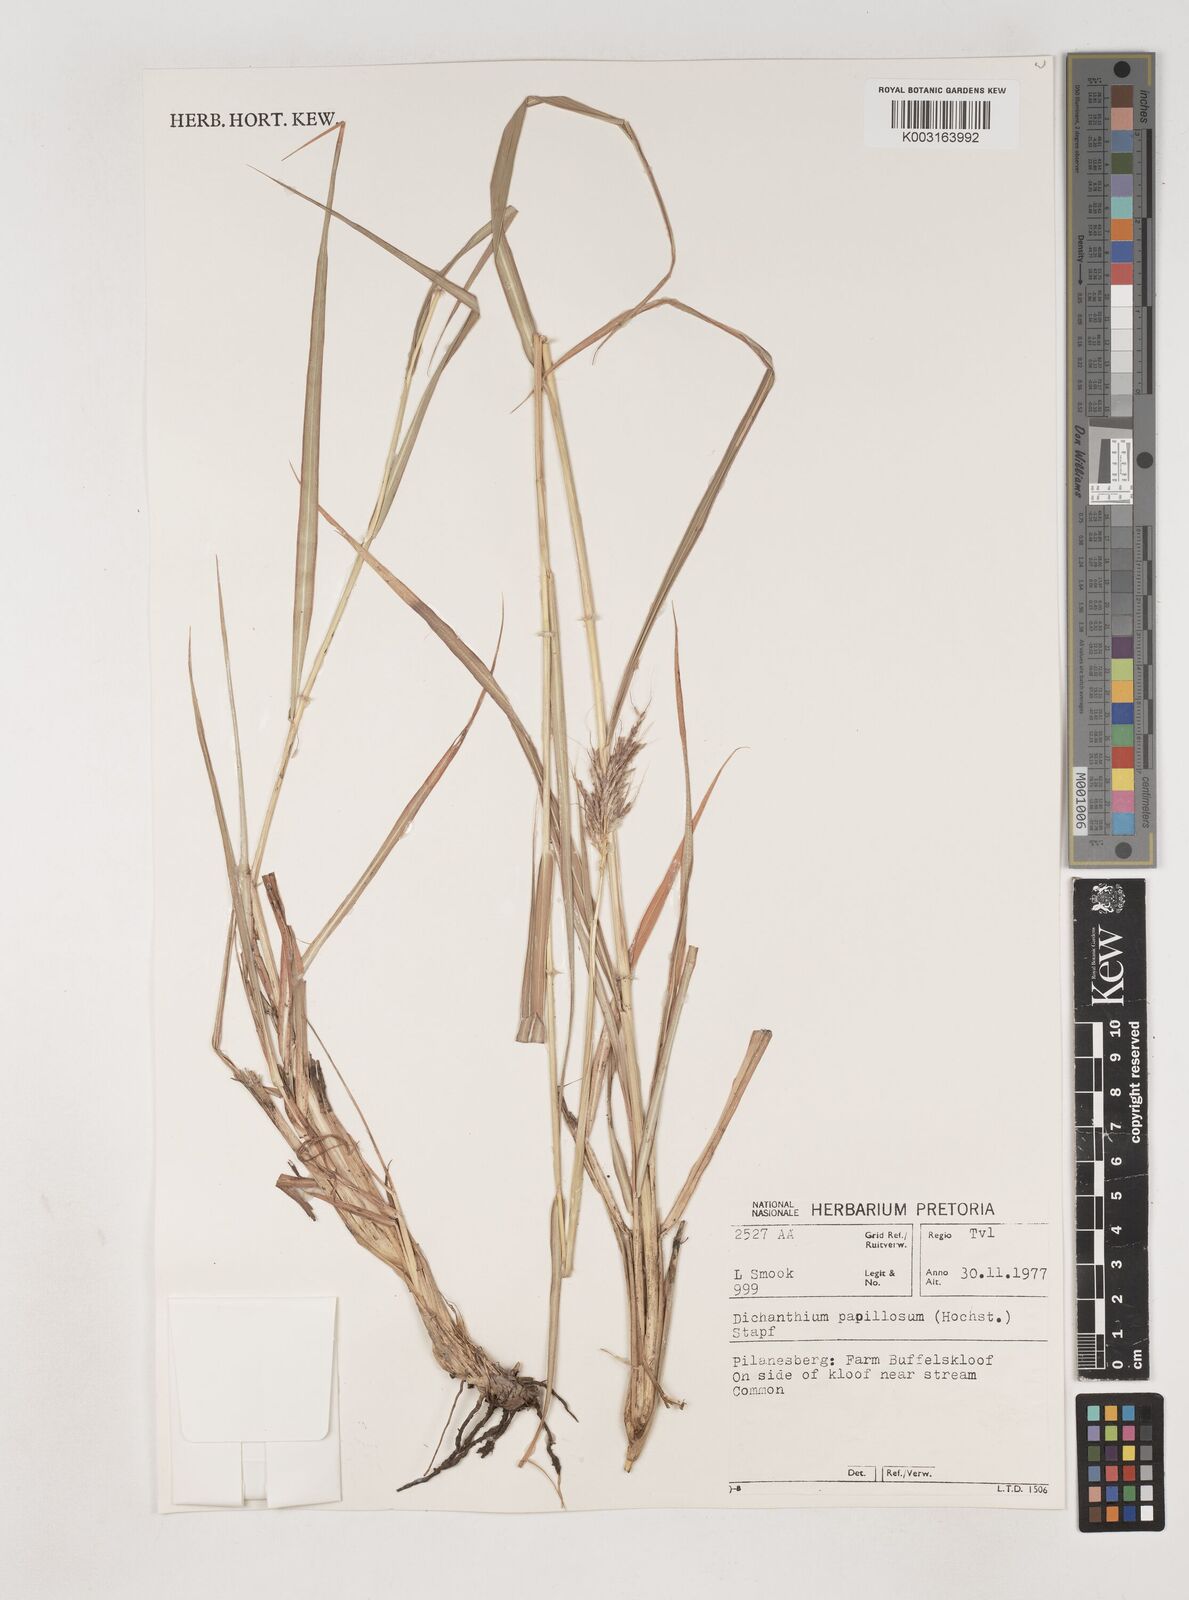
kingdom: Plantae
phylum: Tracheophyta
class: Liliopsida
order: Poales
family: Poaceae
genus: Dichanthium
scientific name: Dichanthium annulatum
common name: Kleberg's bluestem
